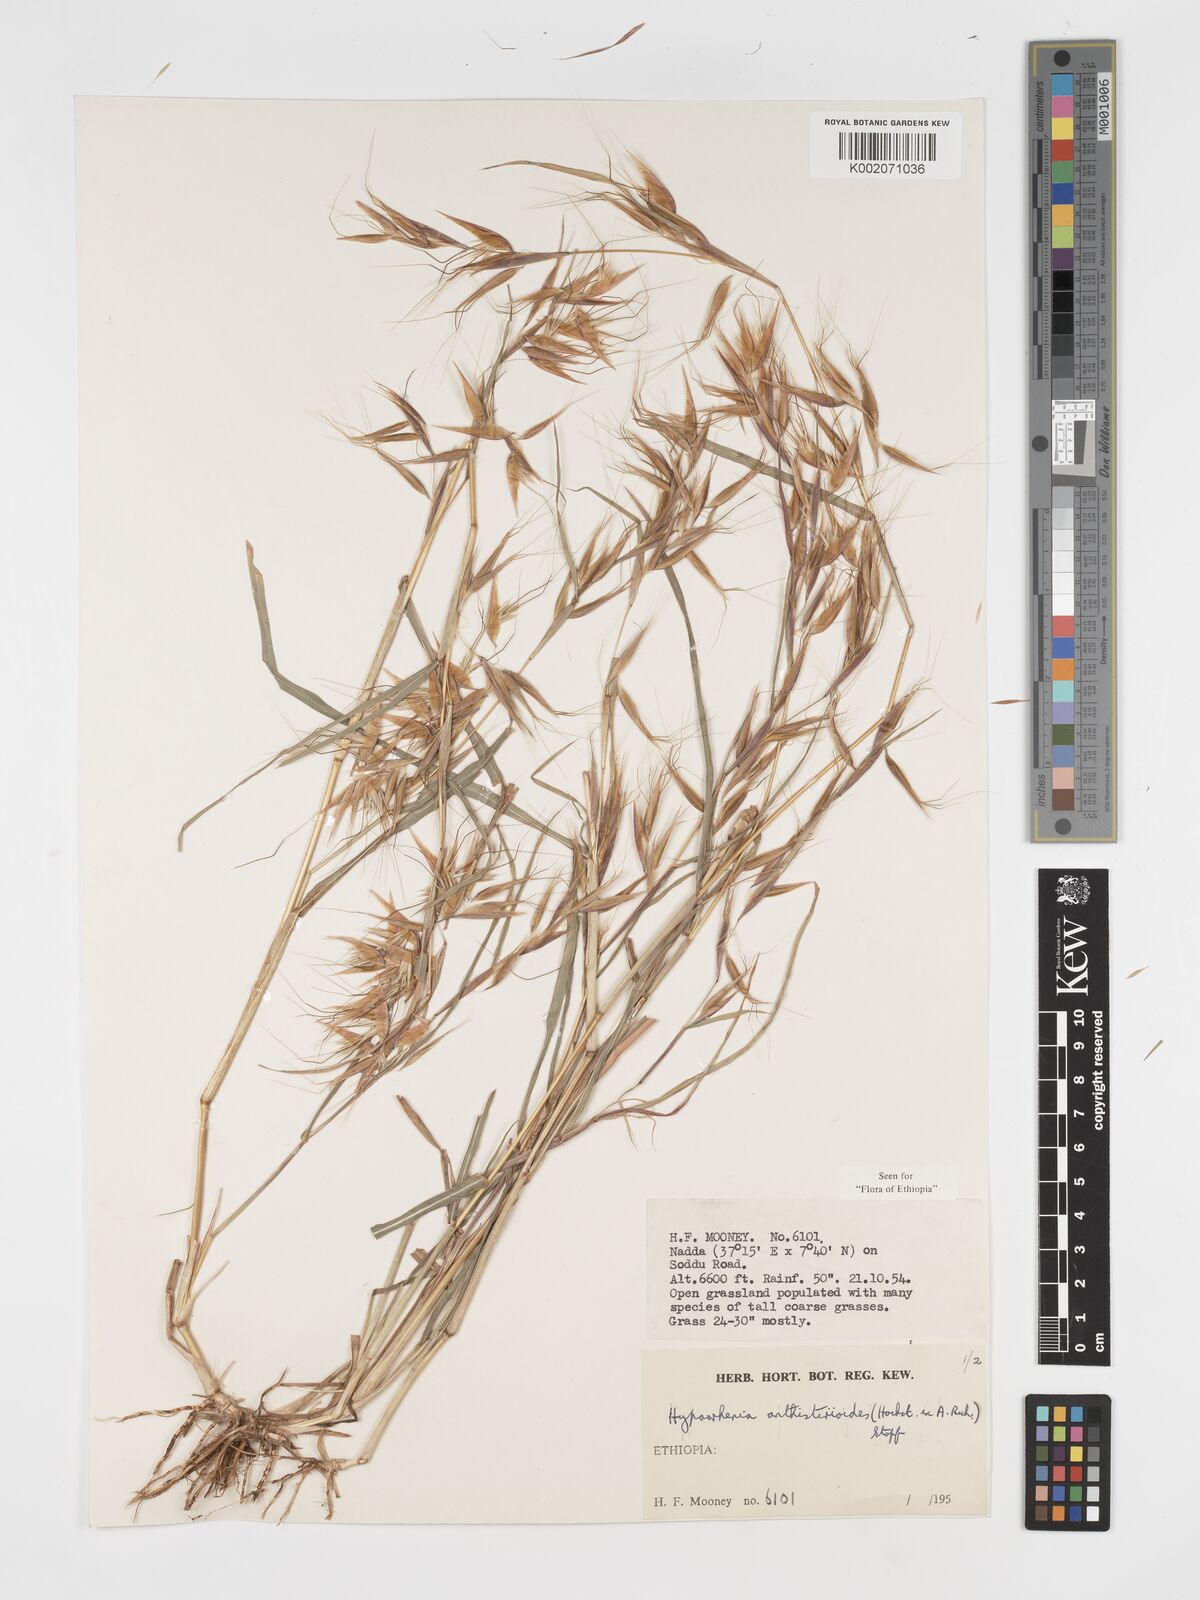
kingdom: Plantae
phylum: Tracheophyta
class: Liliopsida
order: Poales
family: Poaceae
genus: Hyparrhenia
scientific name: Hyparrhenia anthistirioides
